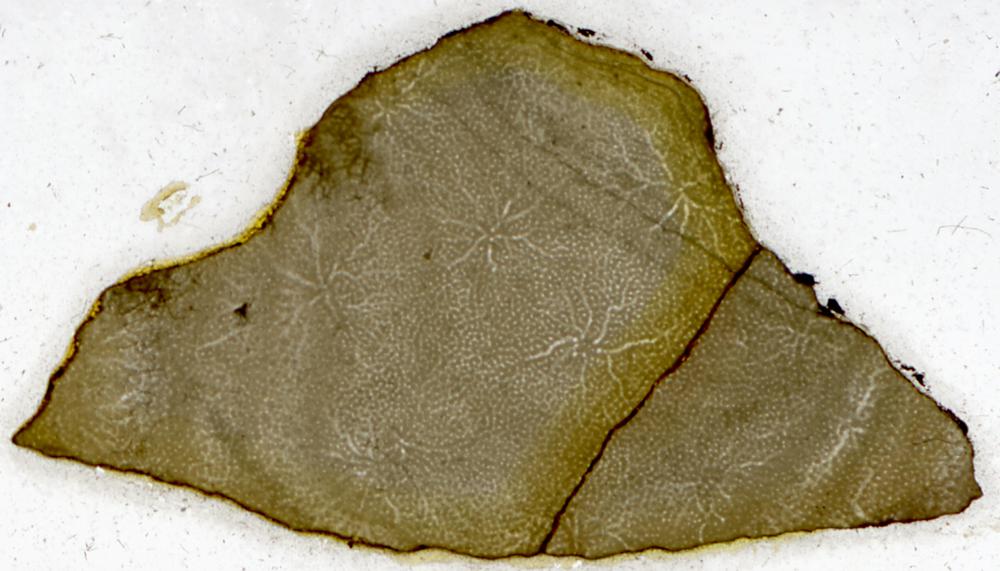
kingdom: Animalia
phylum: Porifera
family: Stromatoporidae
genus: Stromatopora
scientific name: Stromatopora
